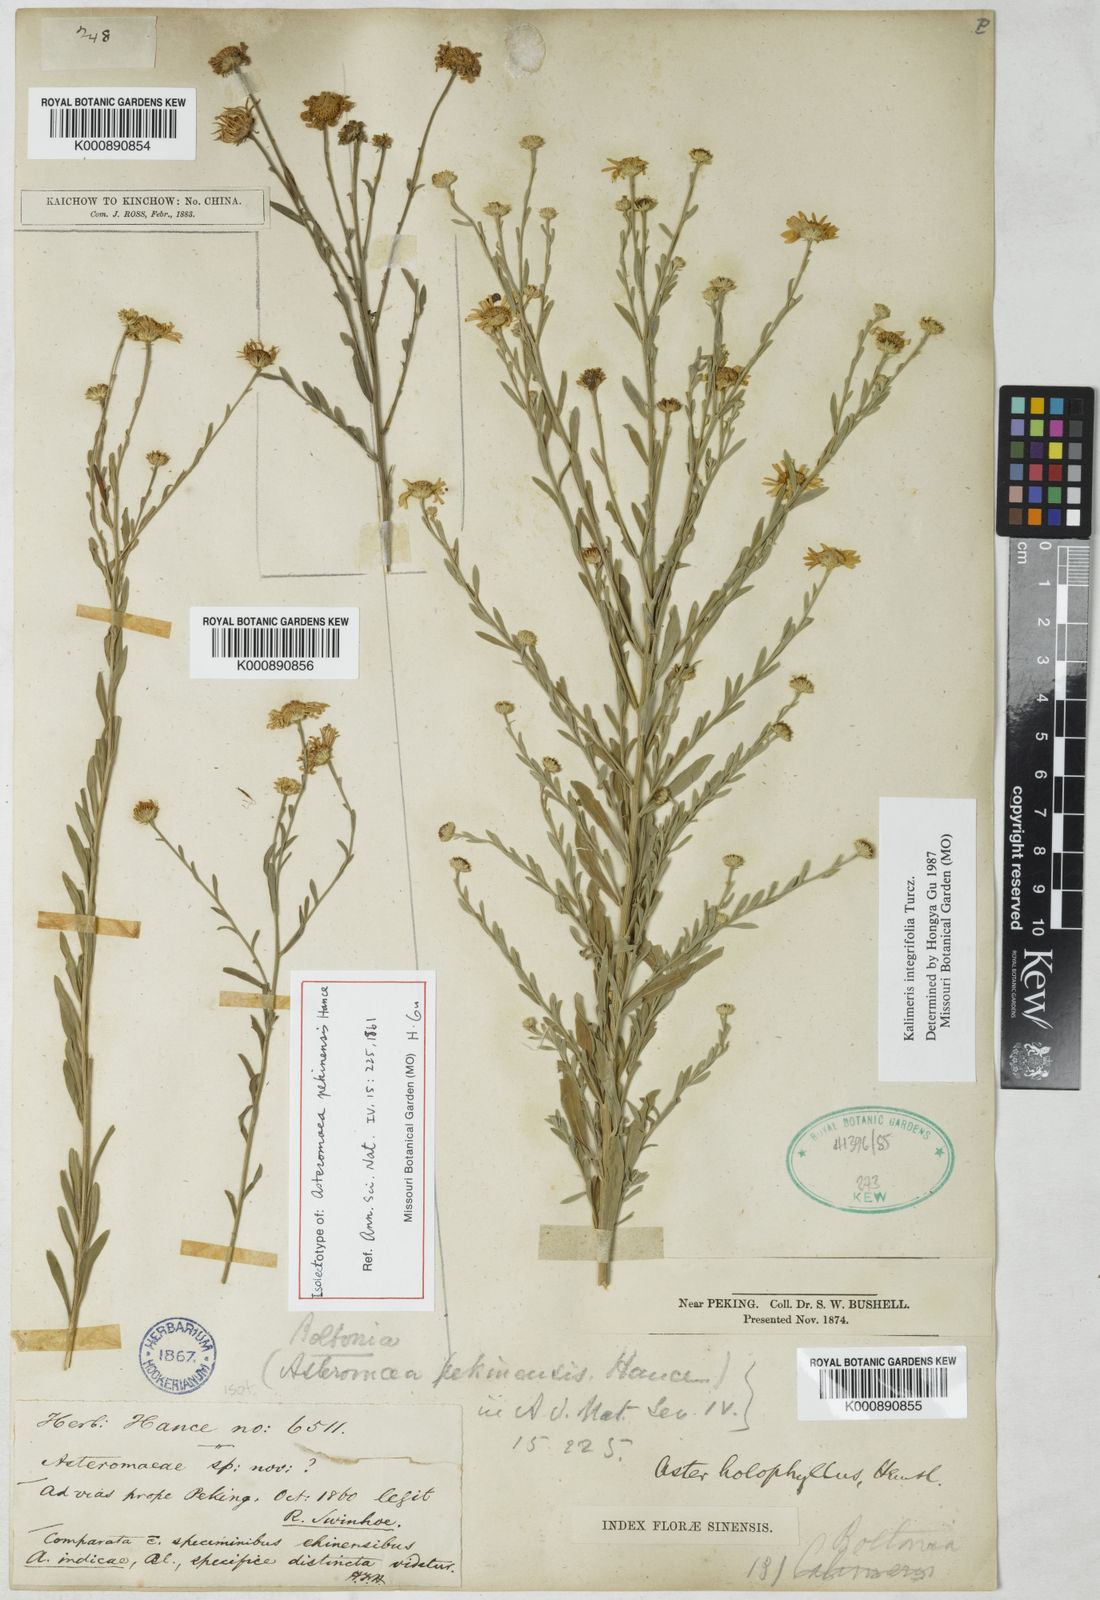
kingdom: Plantae
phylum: Tracheophyta
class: Magnoliopsida
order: Asterales
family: Asteraceae
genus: Kalimeris
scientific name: Kalimeris
